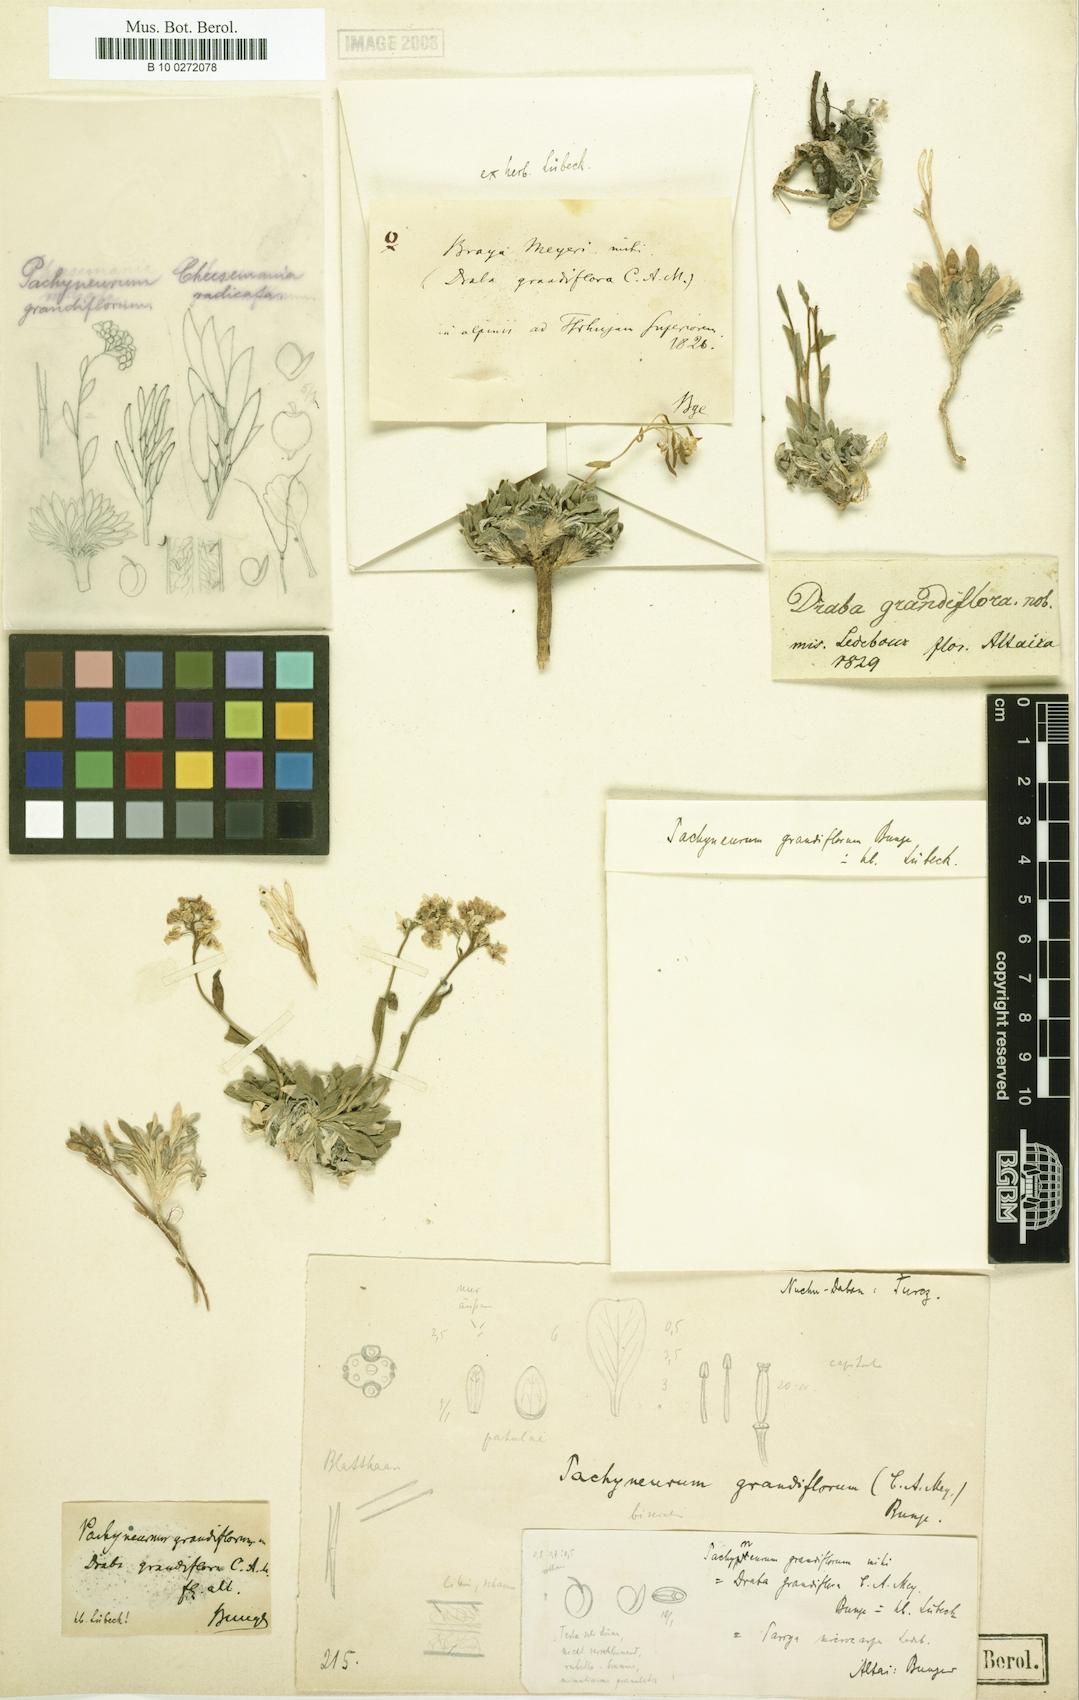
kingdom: Plantae
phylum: Tracheophyta
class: Magnoliopsida
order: Brassicales
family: Brassicaceae
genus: Pachyneurum
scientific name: Pachyneurum grandiflorum
